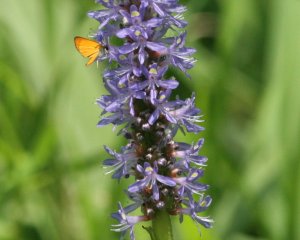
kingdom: Animalia
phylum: Arthropoda
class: Insecta
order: Lepidoptera
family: Hesperiidae
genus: Ancyloxypha
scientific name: Ancyloxypha numitor
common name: Least Skipper
